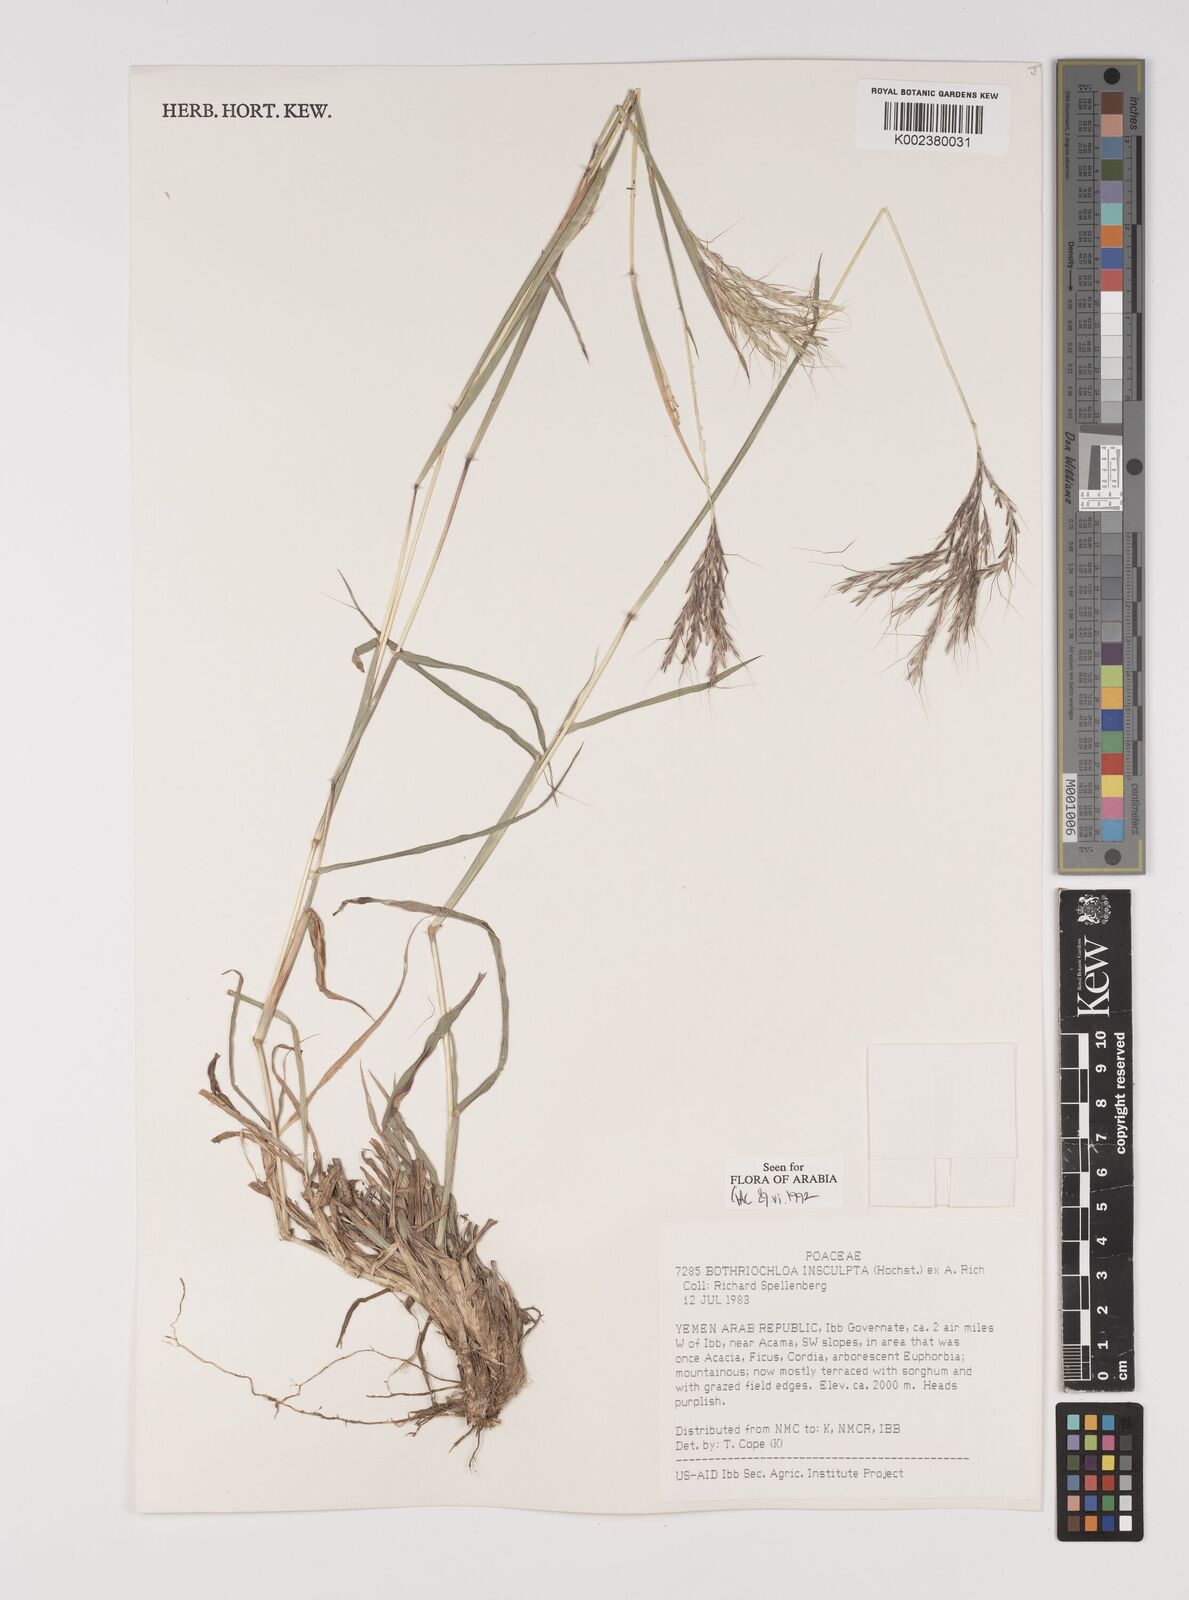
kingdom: Plantae
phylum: Tracheophyta
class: Liliopsida
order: Poales
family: Poaceae
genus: Bothriochloa
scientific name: Bothriochloa insculpta
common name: Creeping-bluegrass
